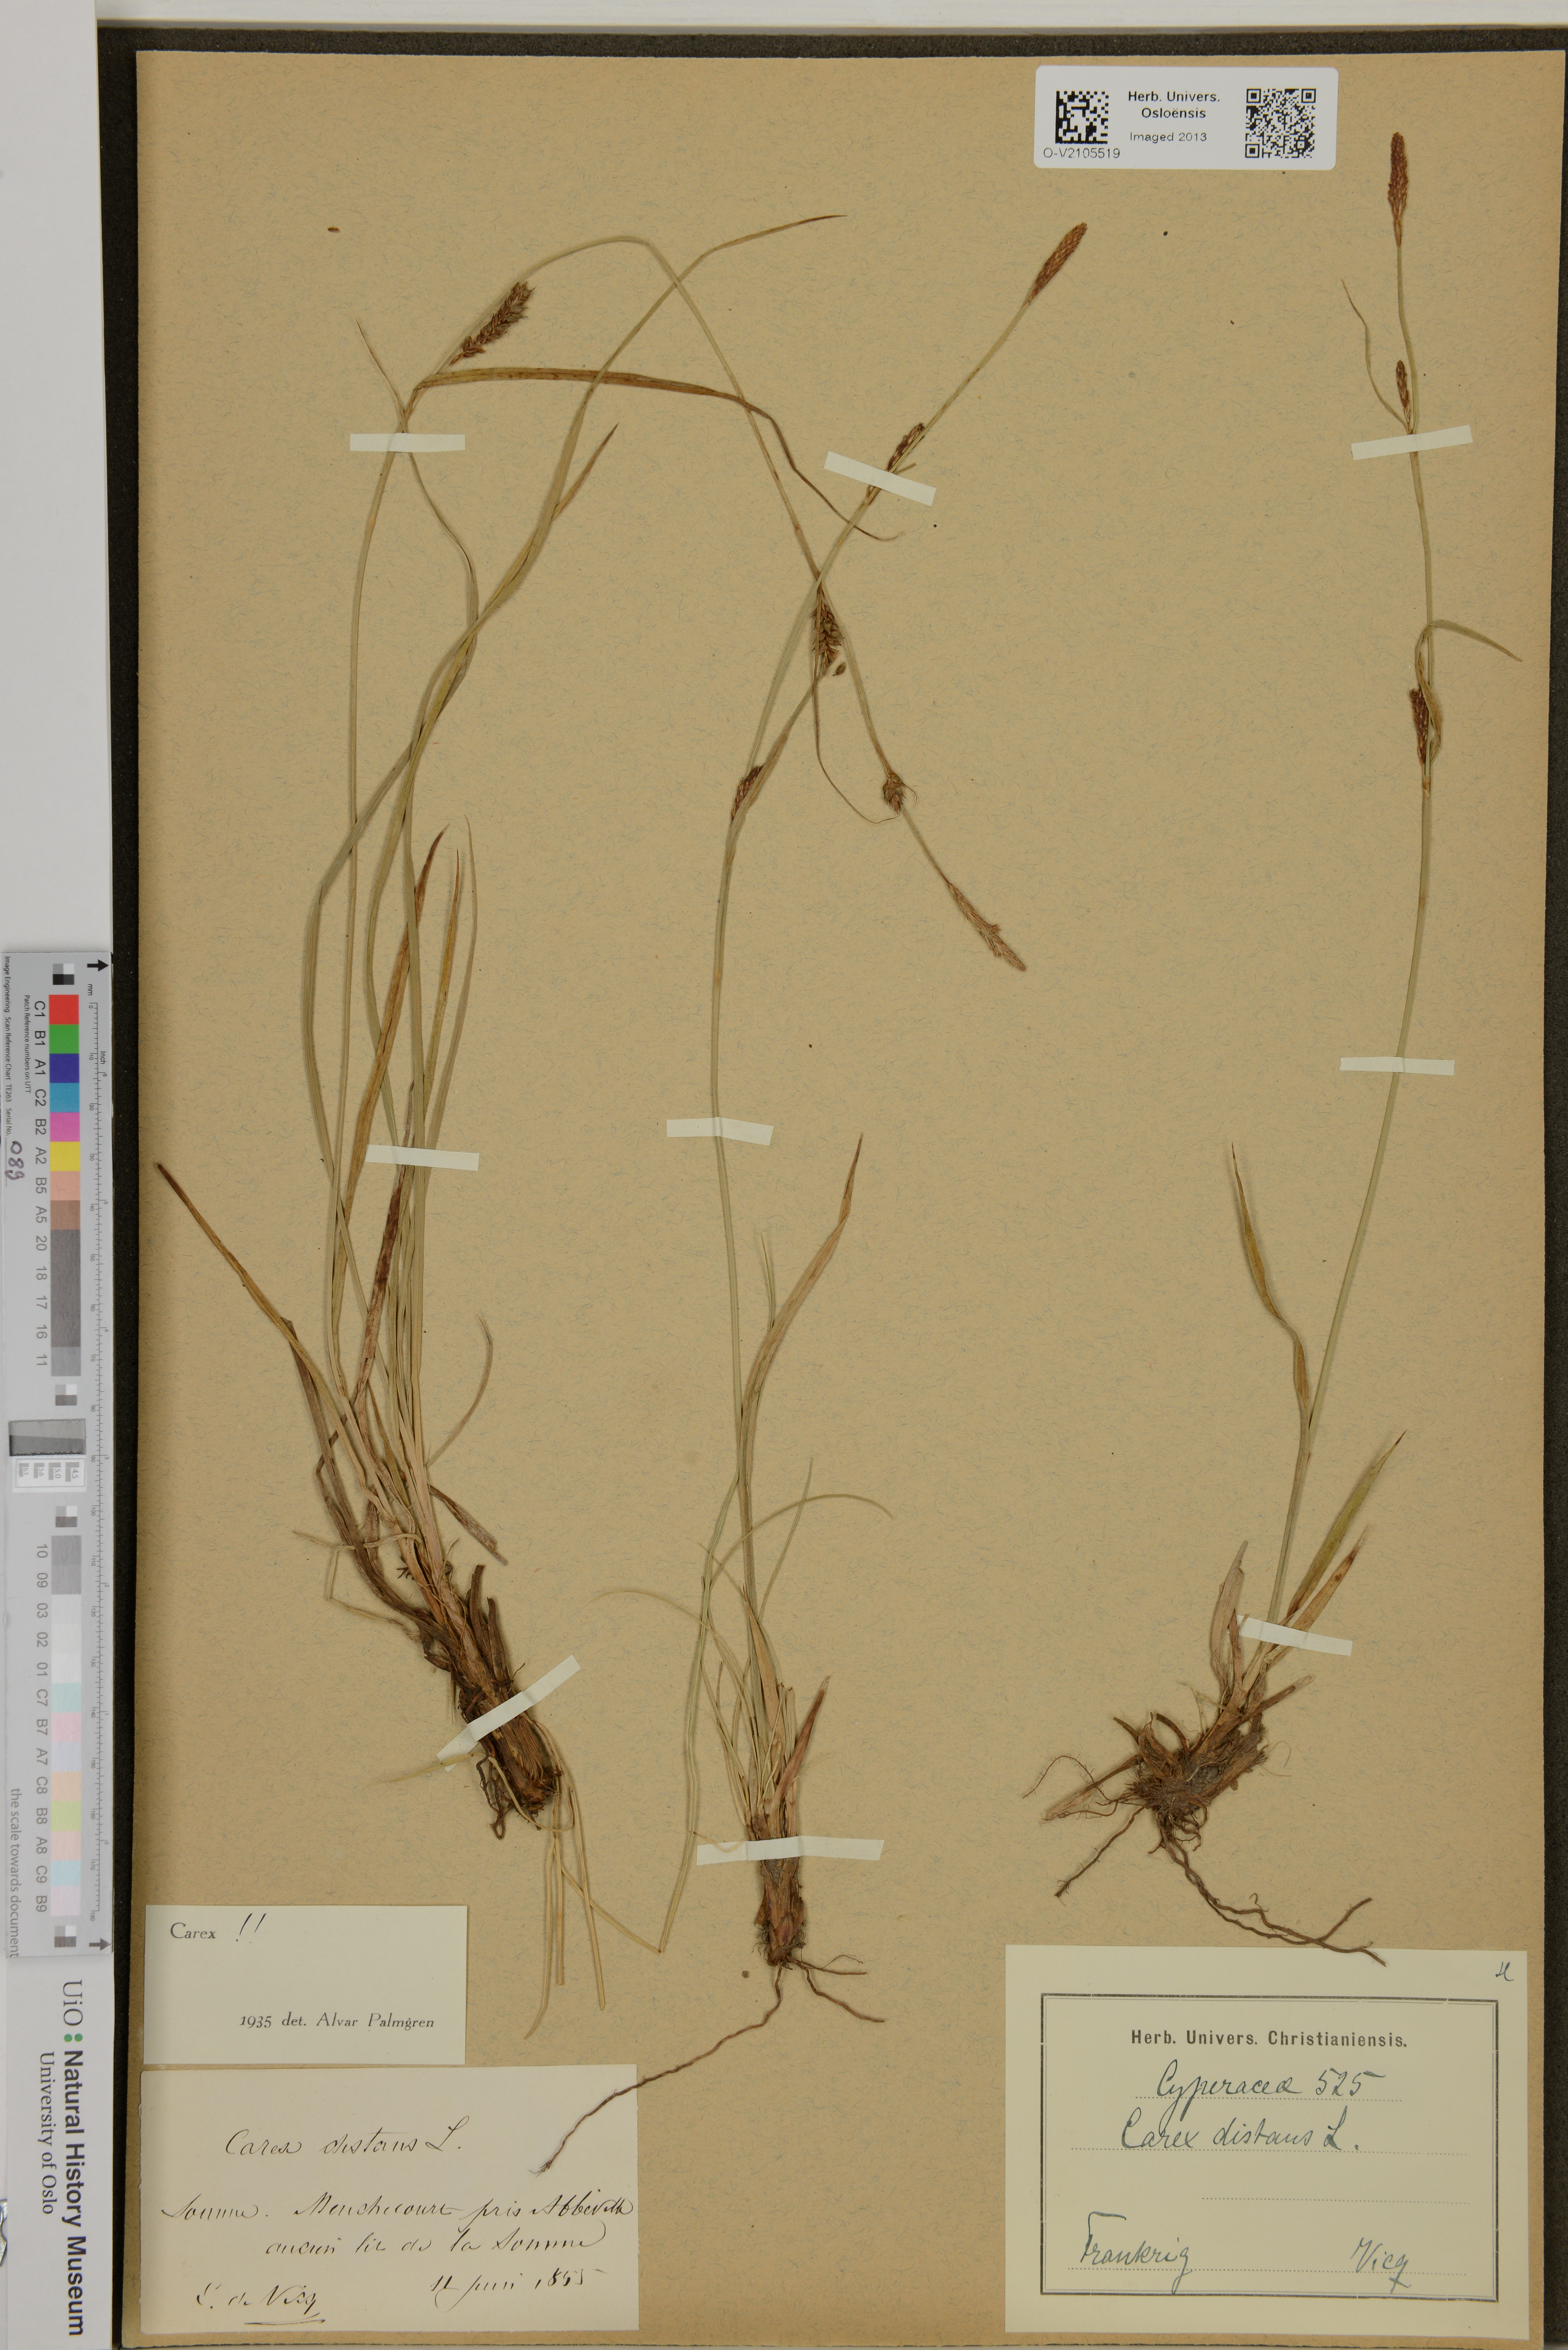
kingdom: Plantae
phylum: Tracheophyta
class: Liliopsida
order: Poales
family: Cyperaceae
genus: Carex
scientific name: Carex distans
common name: Distant sedge
